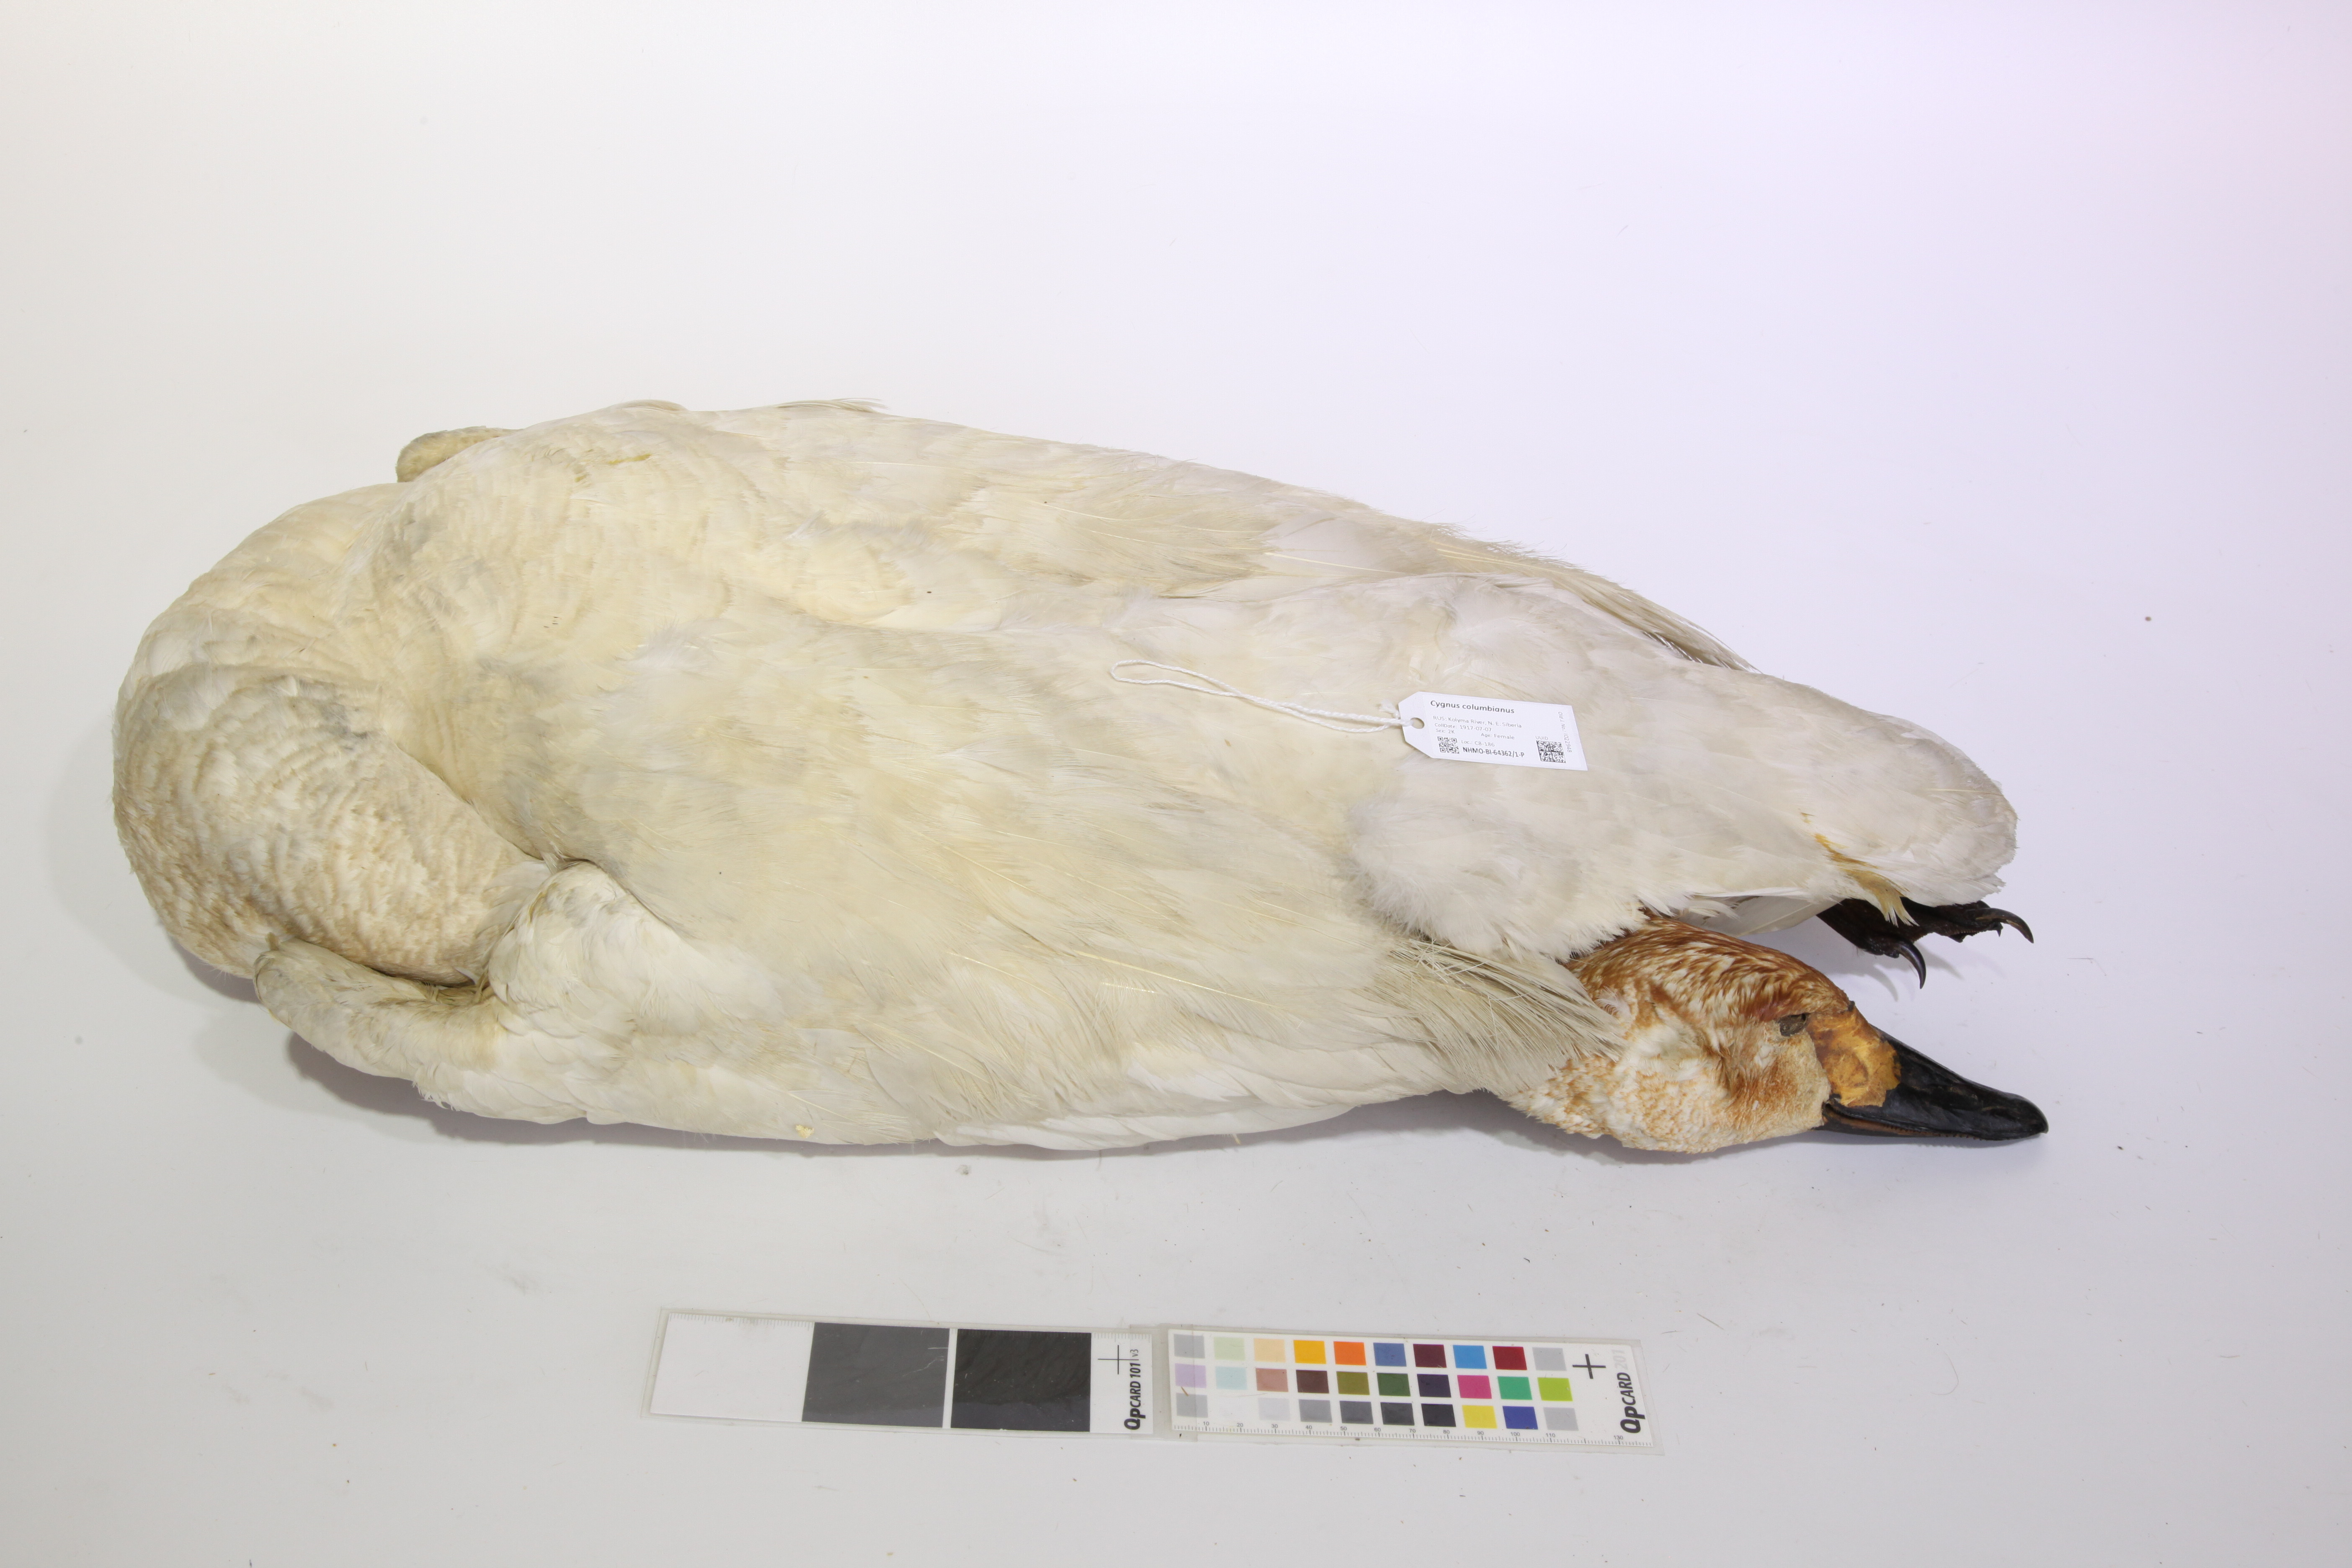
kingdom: Animalia
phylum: Chordata
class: Aves
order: Anseriformes
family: Anatidae
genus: Cygnus
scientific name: Cygnus columbianus
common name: Tundra swan
